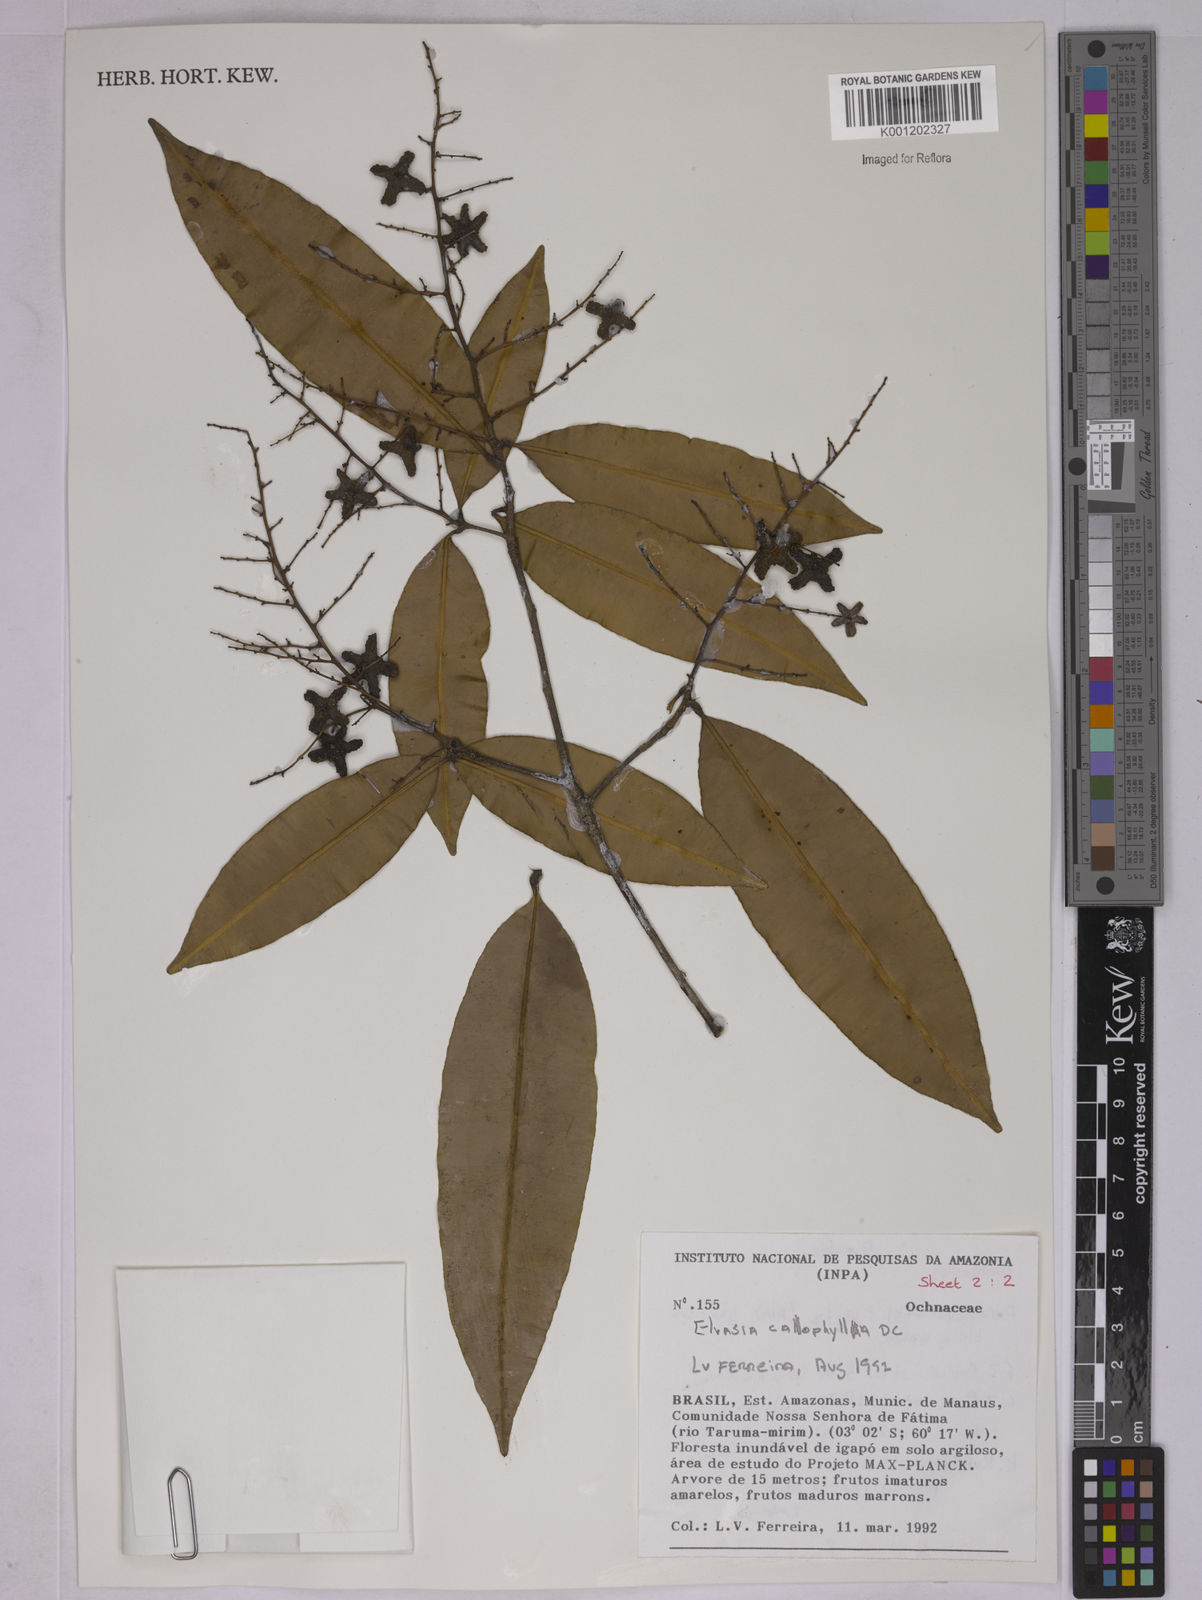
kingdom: Plantae
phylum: Tracheophyta
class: Magnoliopsida
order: Malpighiales
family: Ochnaceae
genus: Elvasia
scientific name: Elvasia calophyllea
